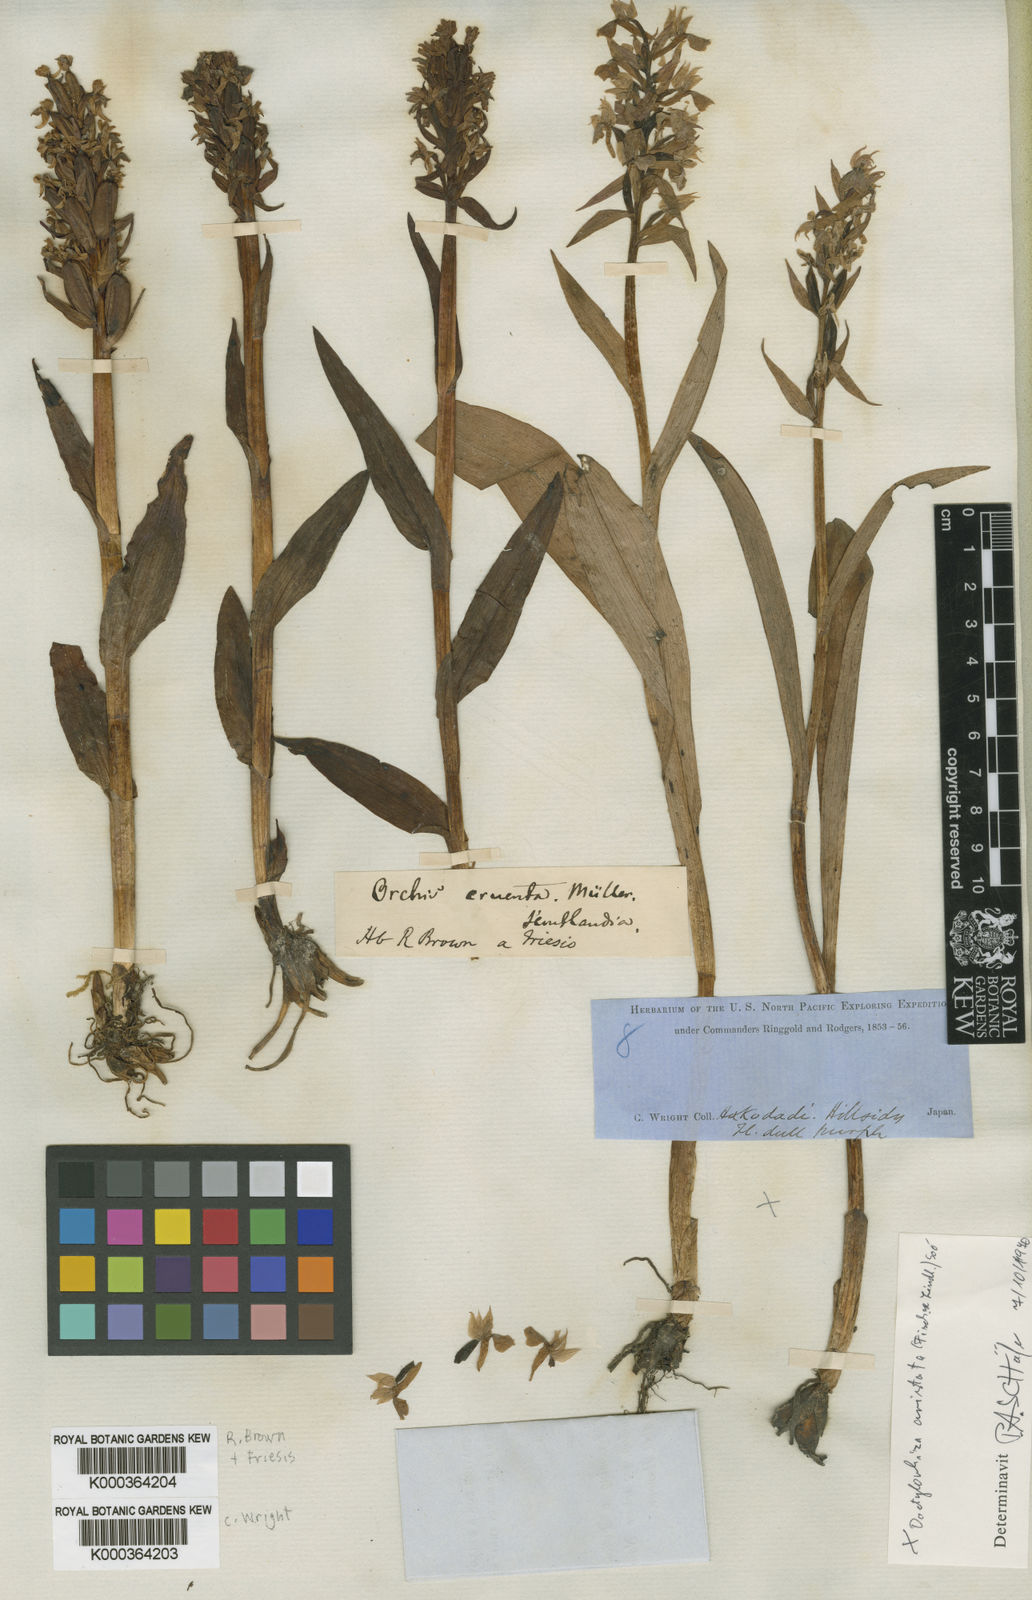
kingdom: Plantae
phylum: Tracheophyta
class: Liliopsida
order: Asparagales
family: Orchidaceae
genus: Dactylorhiza
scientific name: Dactylorhiza
